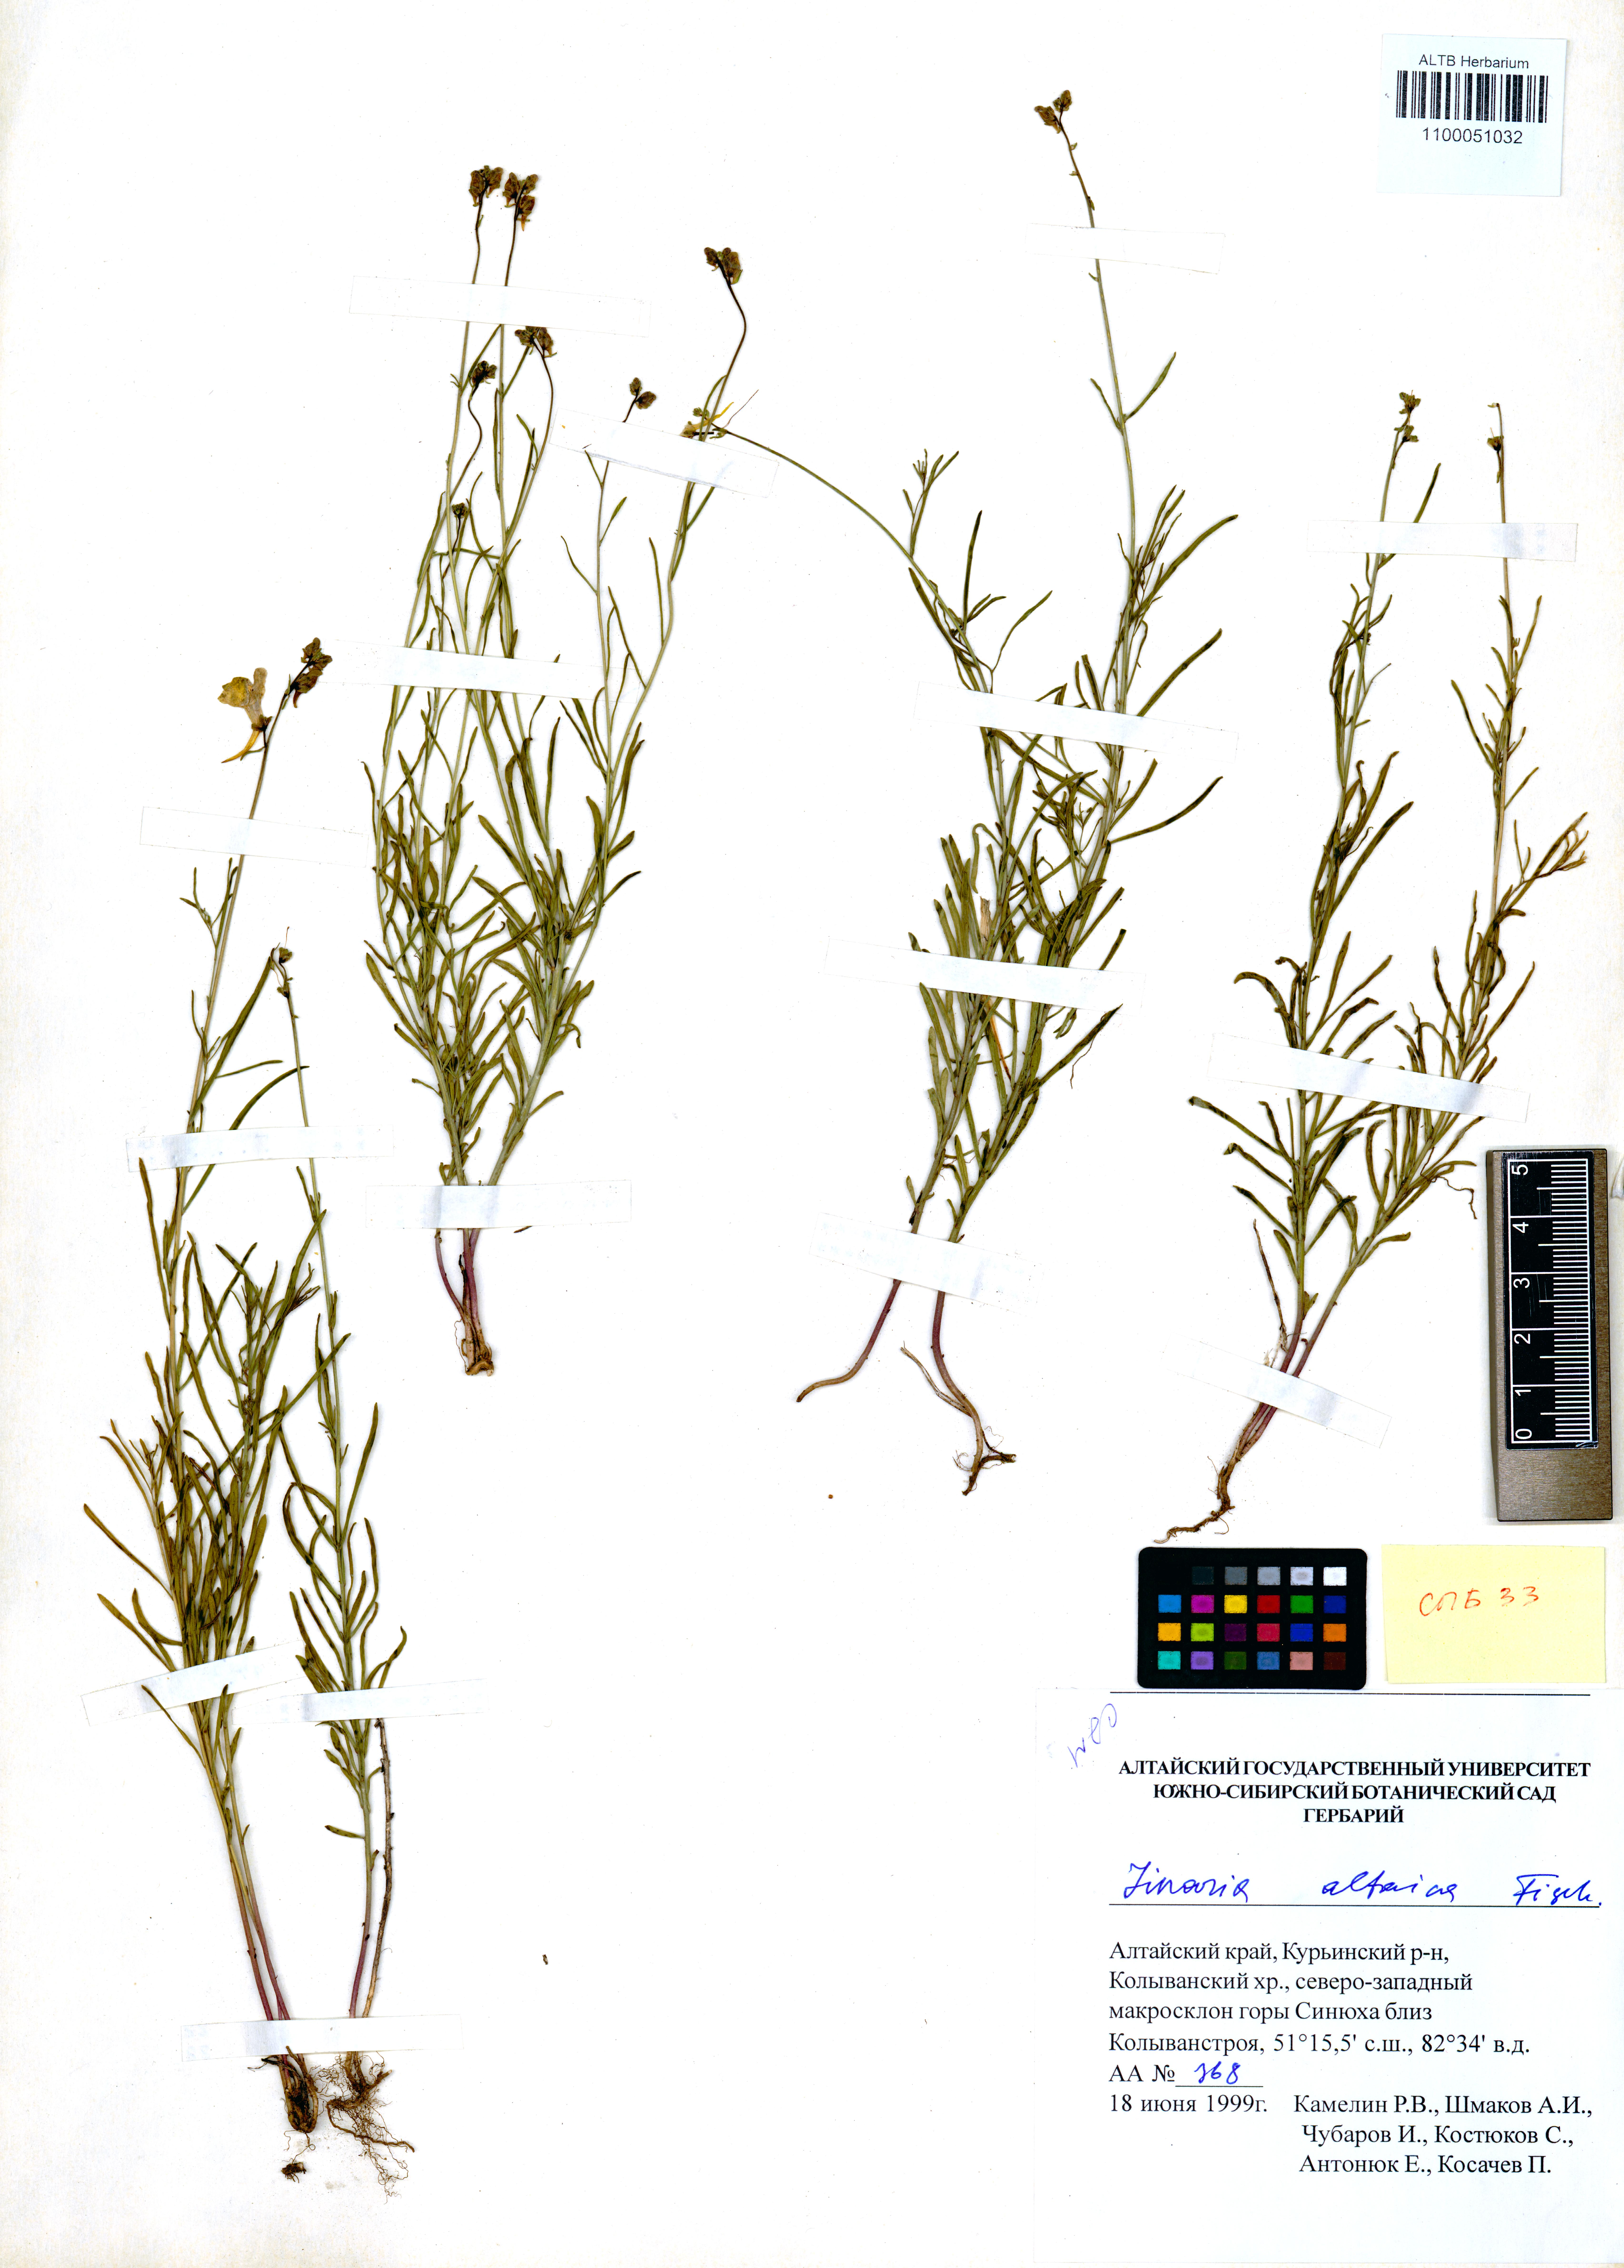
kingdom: Plantae
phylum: Tracheophyta
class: Magnoliopsida
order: Lamiales
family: Plantaginaceae
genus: Linaria
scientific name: Linaria altaica
